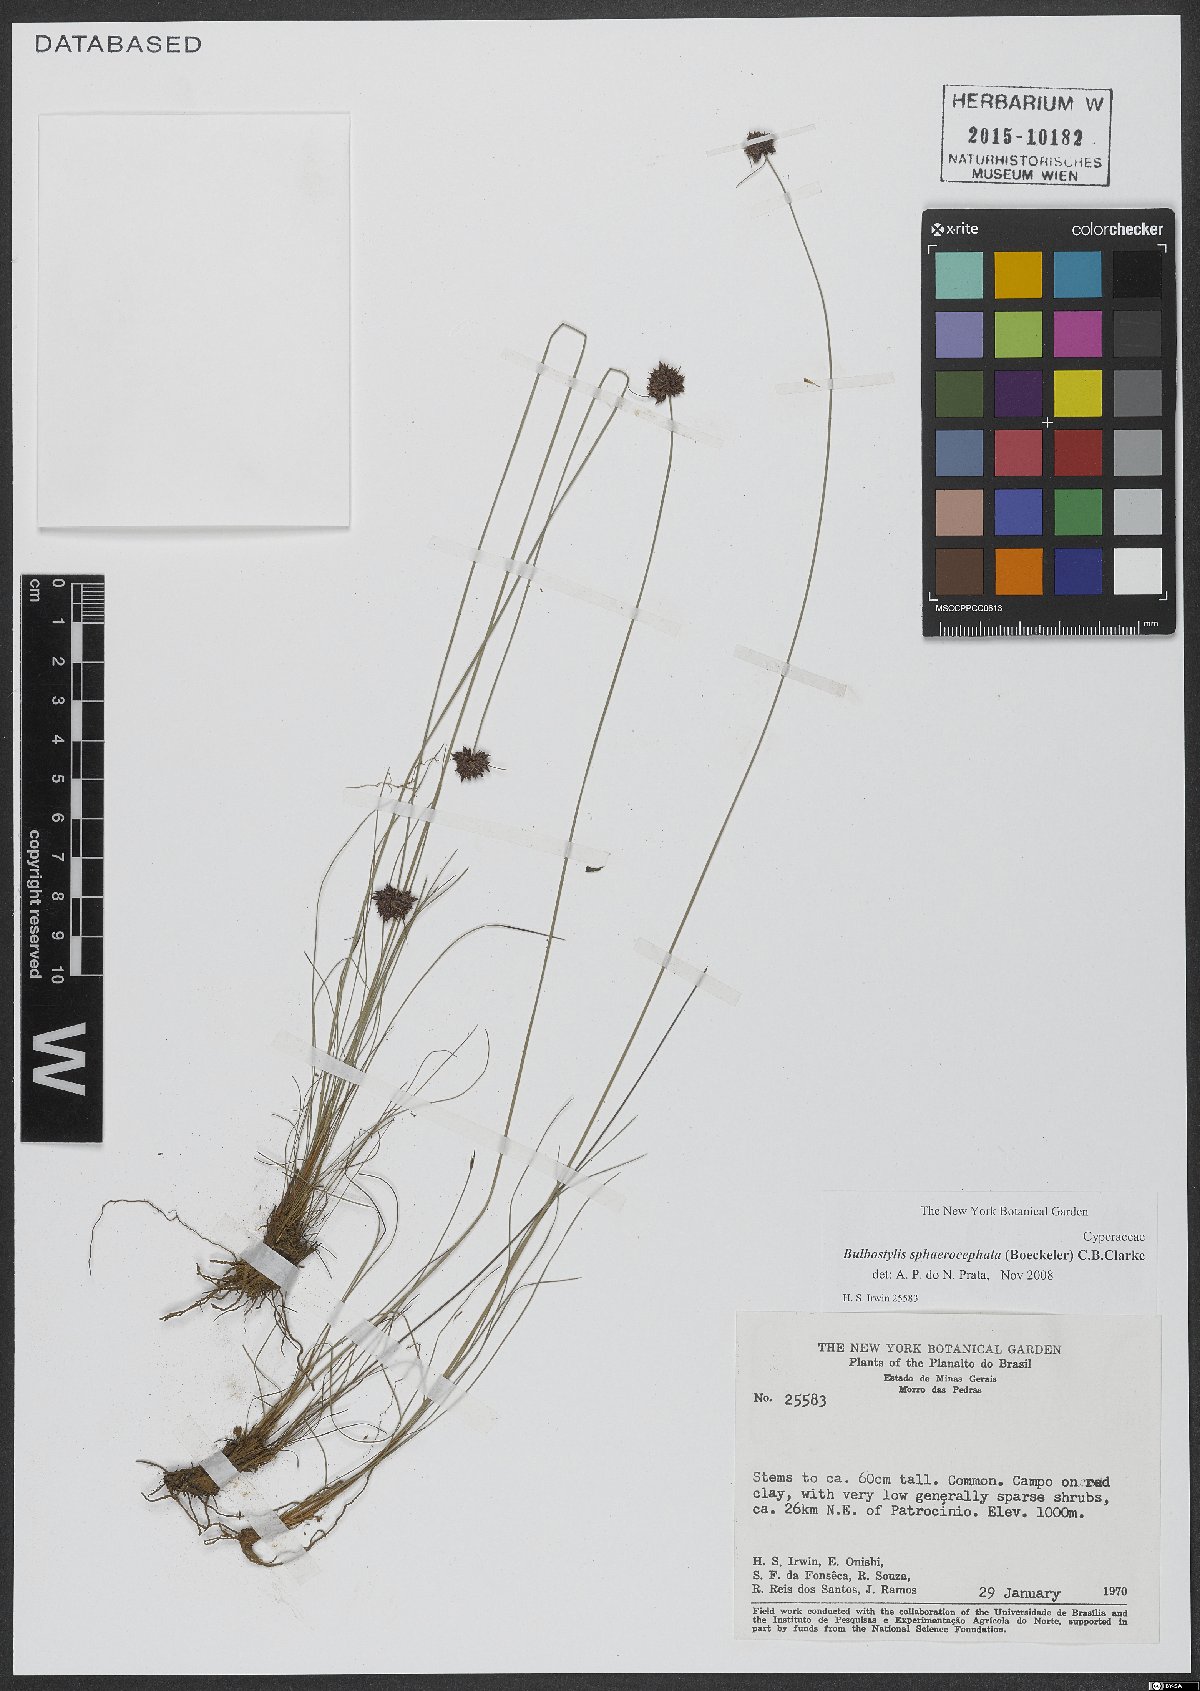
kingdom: Plantae
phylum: Tracheophyta
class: Liliopsida
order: Poales
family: Cyperaceae
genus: Bulbostylis
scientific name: Bulbostylis sphaerocephala
